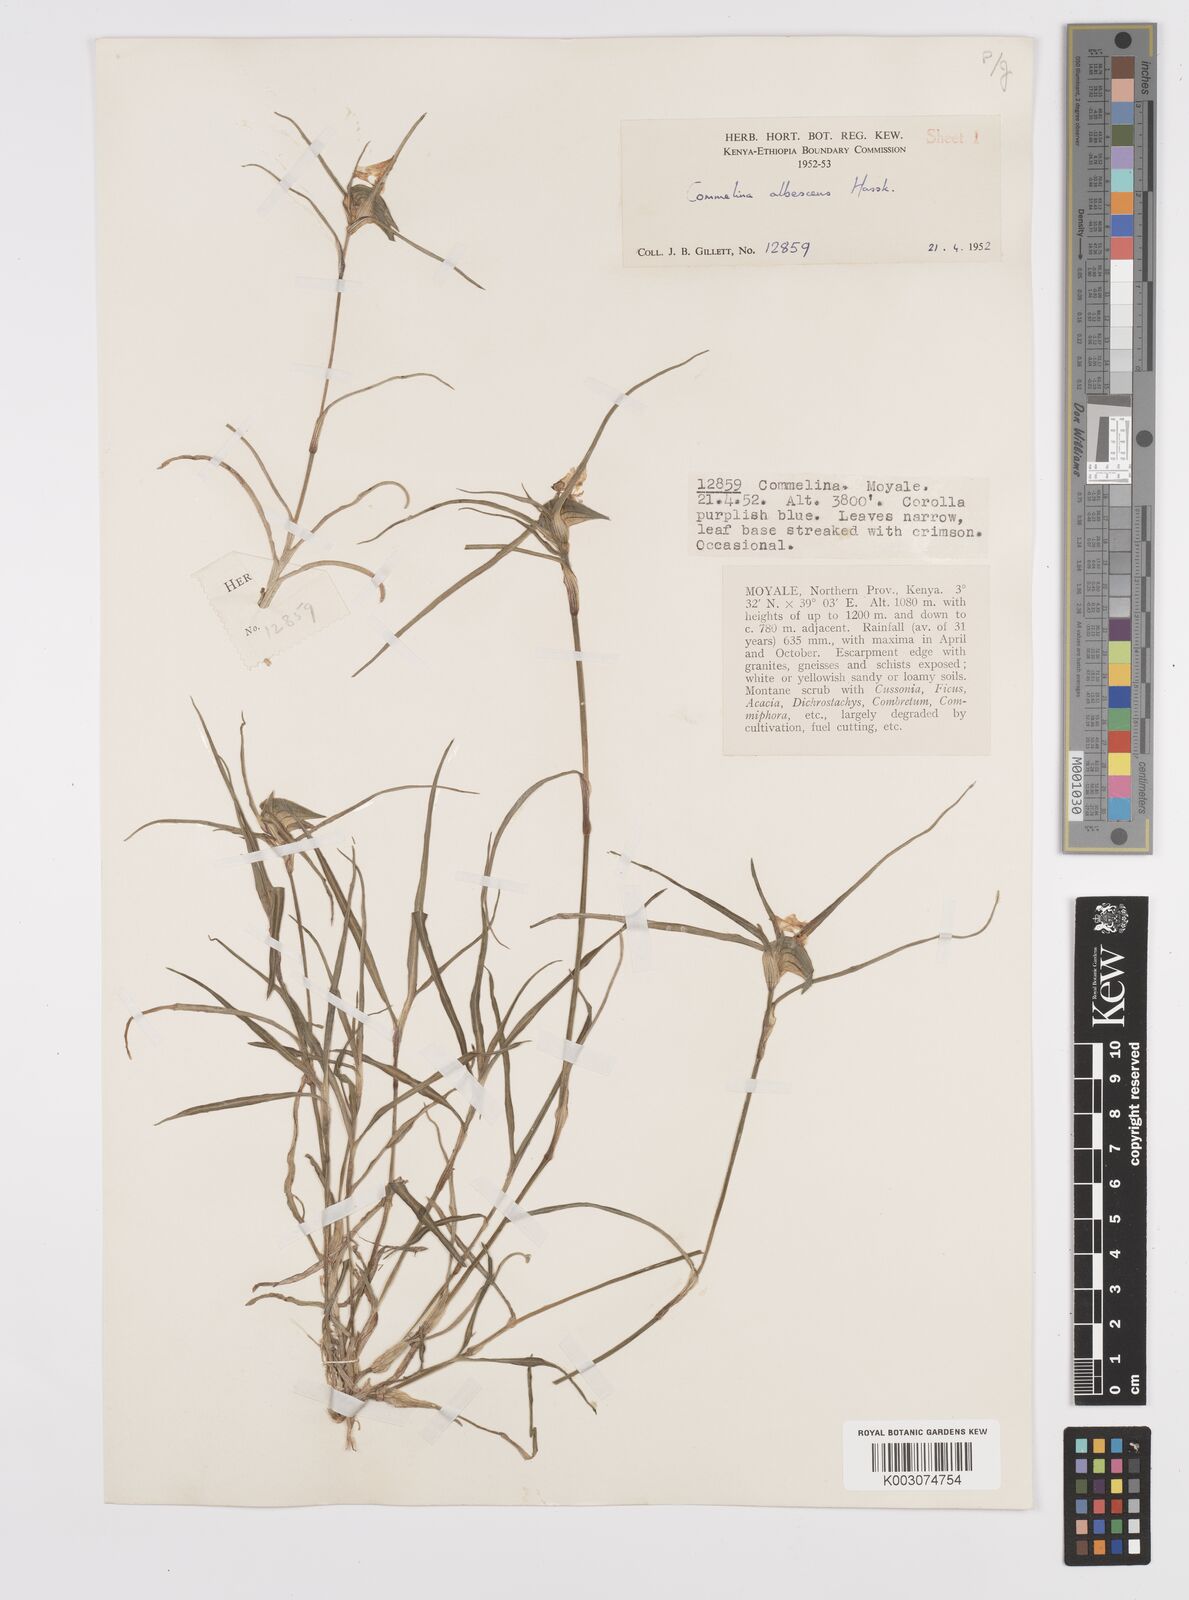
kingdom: Plantae
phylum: Tracheophyta
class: Liliopsida
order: Commelinales
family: Commelinaceae
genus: Commelina
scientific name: Commelina albescens
